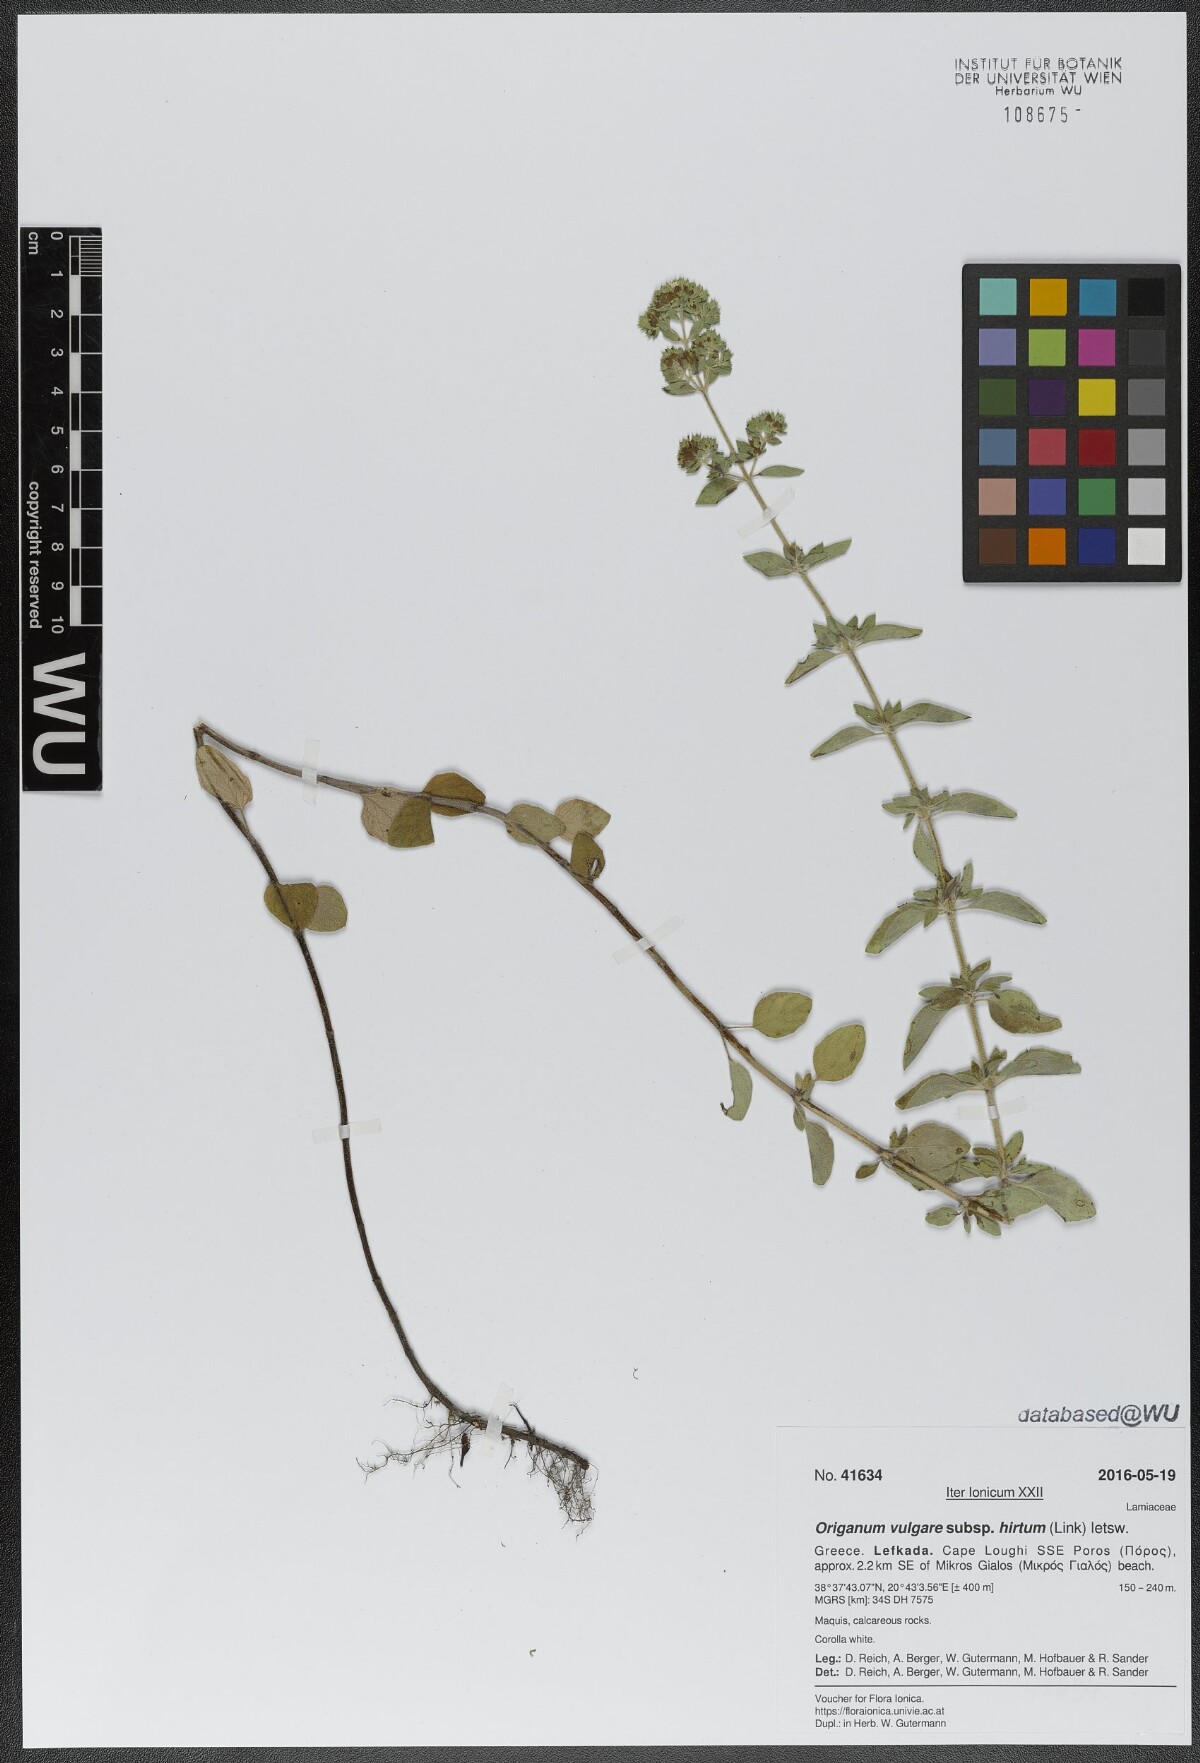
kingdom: Plantae
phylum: Tracheophyta
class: Magnoliopsida
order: Lamiales
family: Lamiaceae
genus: Origanum
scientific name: Origanum vulgare
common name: Wild marjoram
